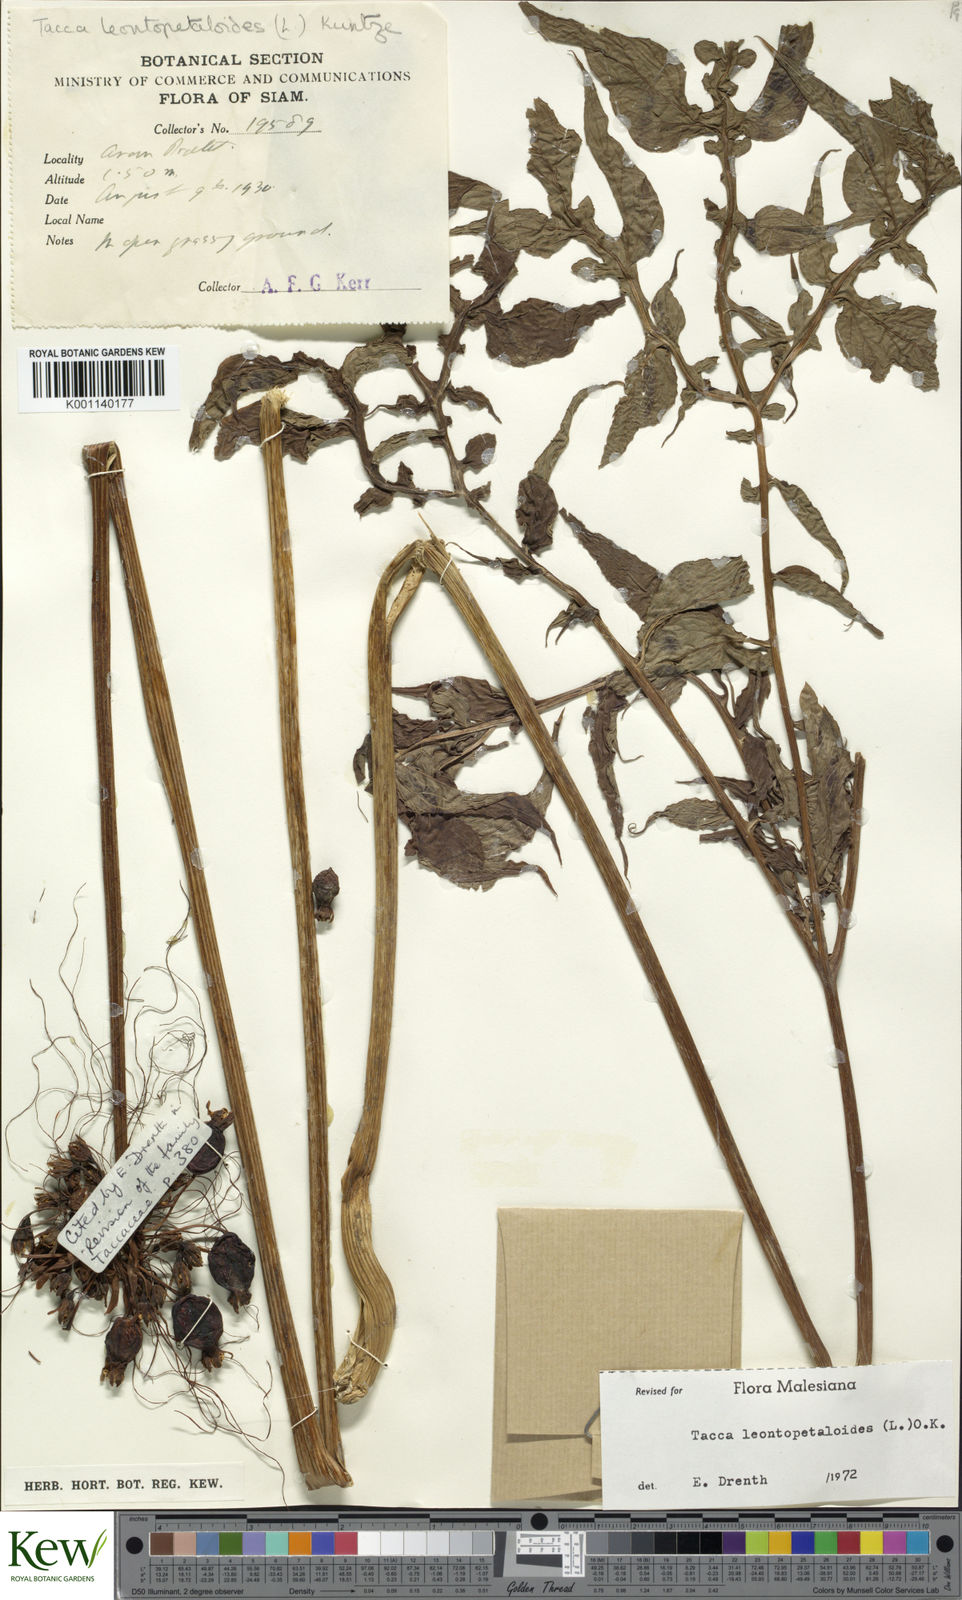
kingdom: Plantae
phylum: Tracheophyta
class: Liliopsida
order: Dioscoreales
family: Dioscoreaceae
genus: Tacca
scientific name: Tacca leontopetaloides
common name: Arrowroot
